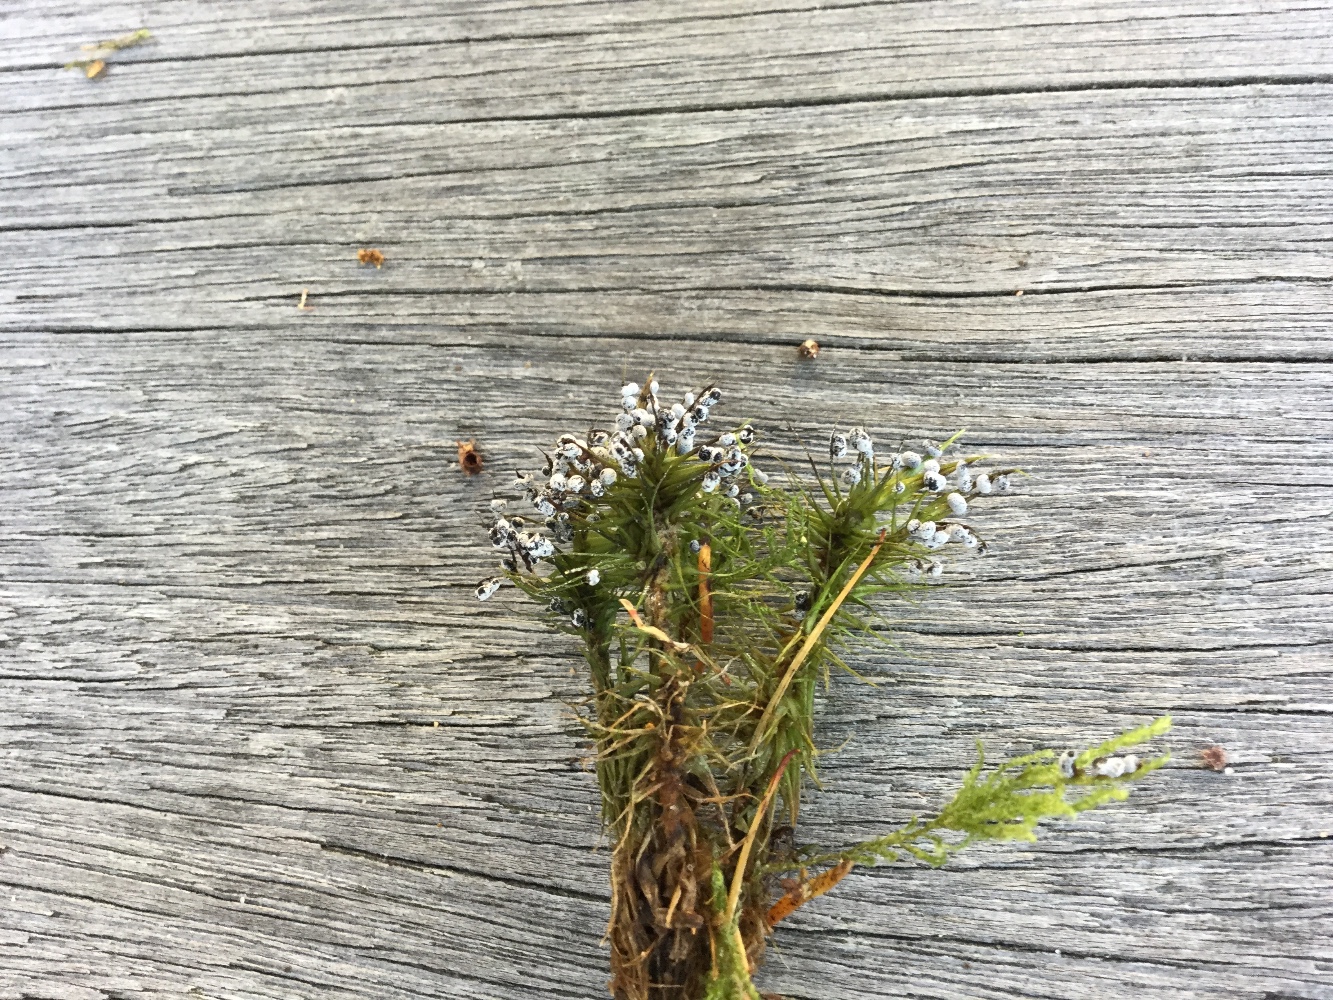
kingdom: Protozoa
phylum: Mycetozoa
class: Myxomycetes
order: Physarales
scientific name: Physarales
